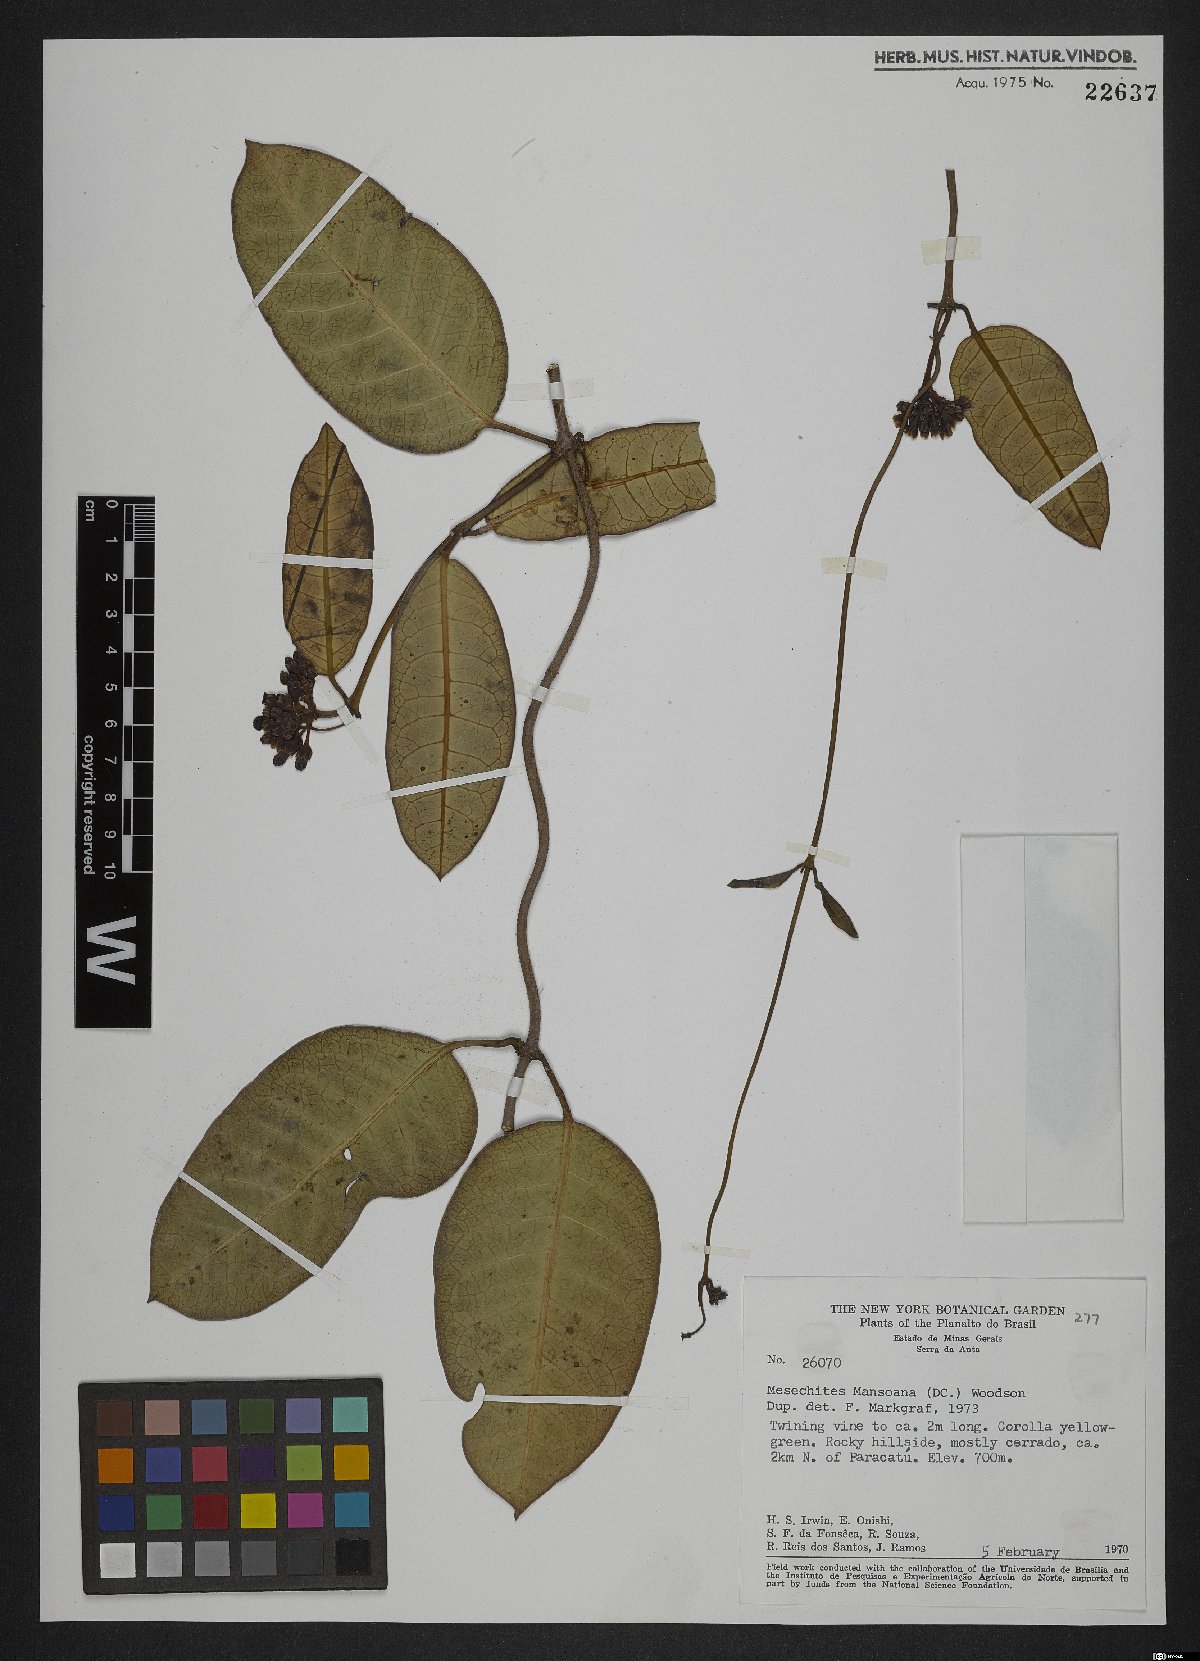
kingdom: Plantae
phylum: Tracheophyta
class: Magnoliopsida
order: Gentianales
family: Apocynaceae
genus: Mesechites
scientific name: Mesechites mansoanus
